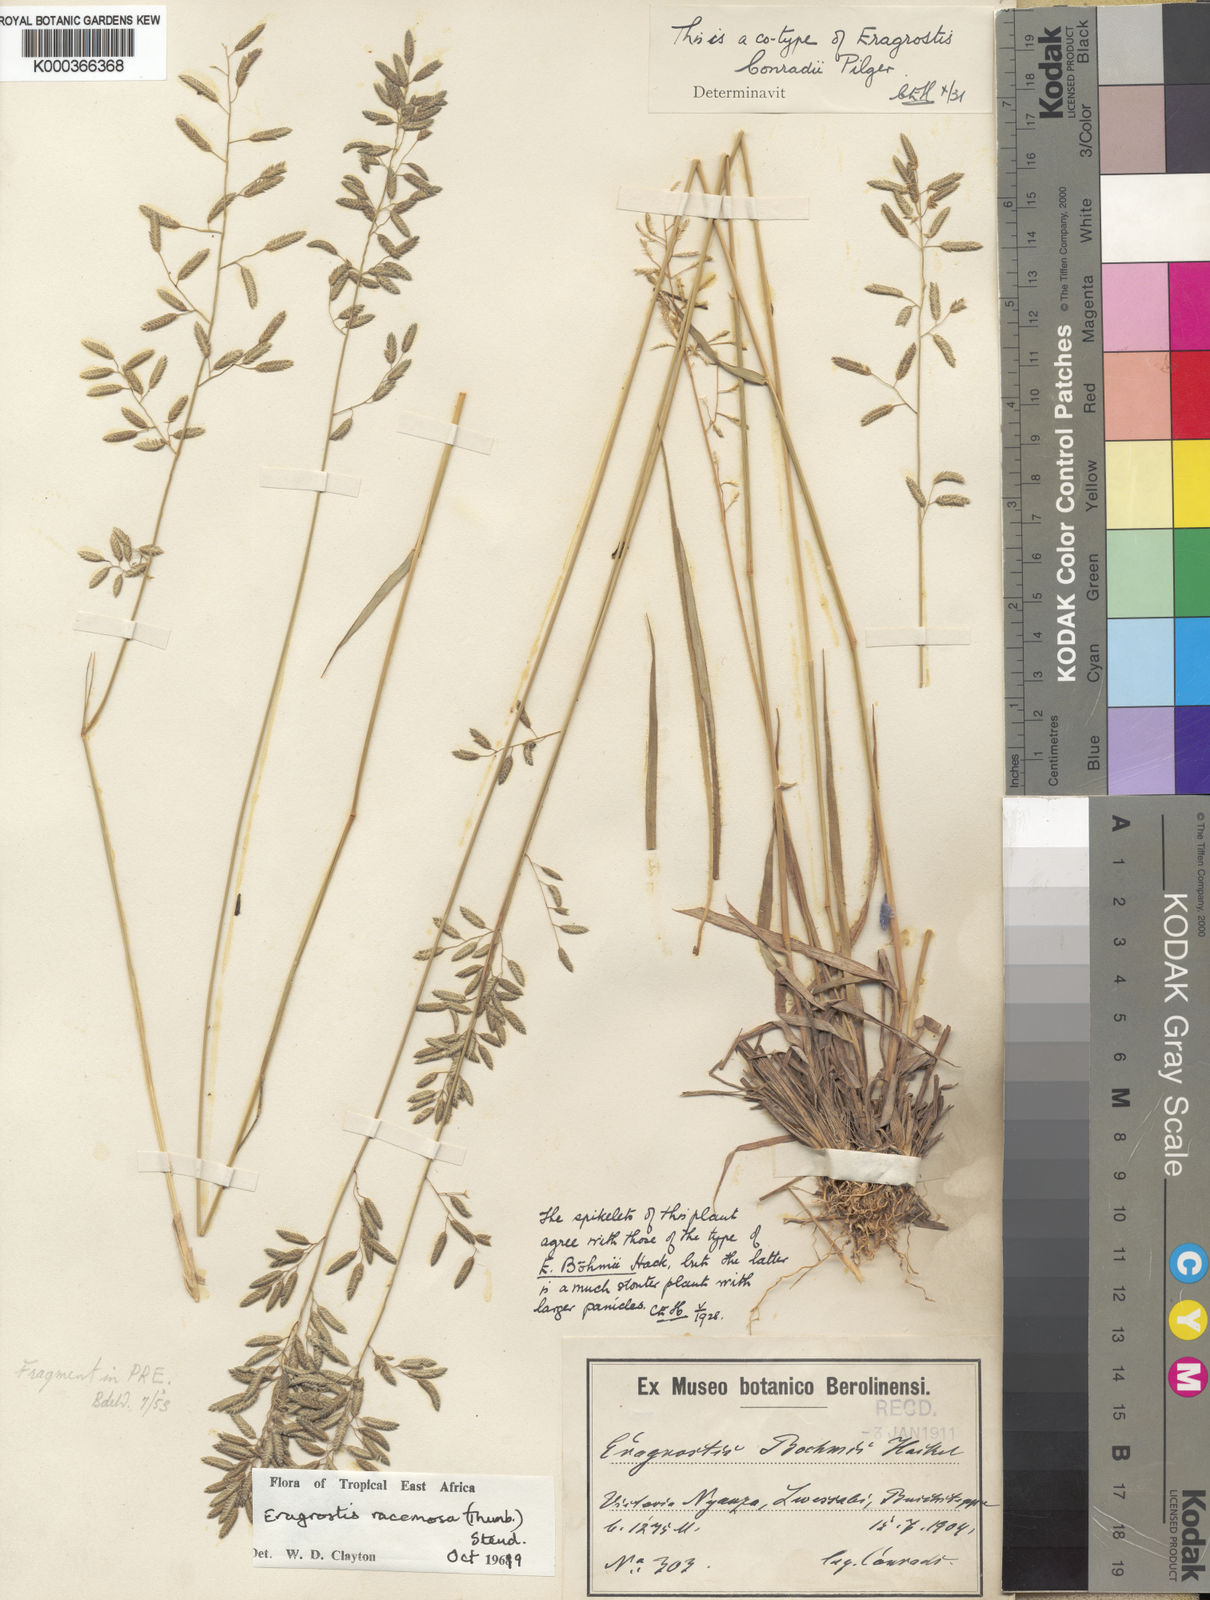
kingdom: Plantae
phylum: Tracheophyta
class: Liliopsida
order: Poales
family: Poaceae
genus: Eragrostis
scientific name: Eragrostis racemosa
